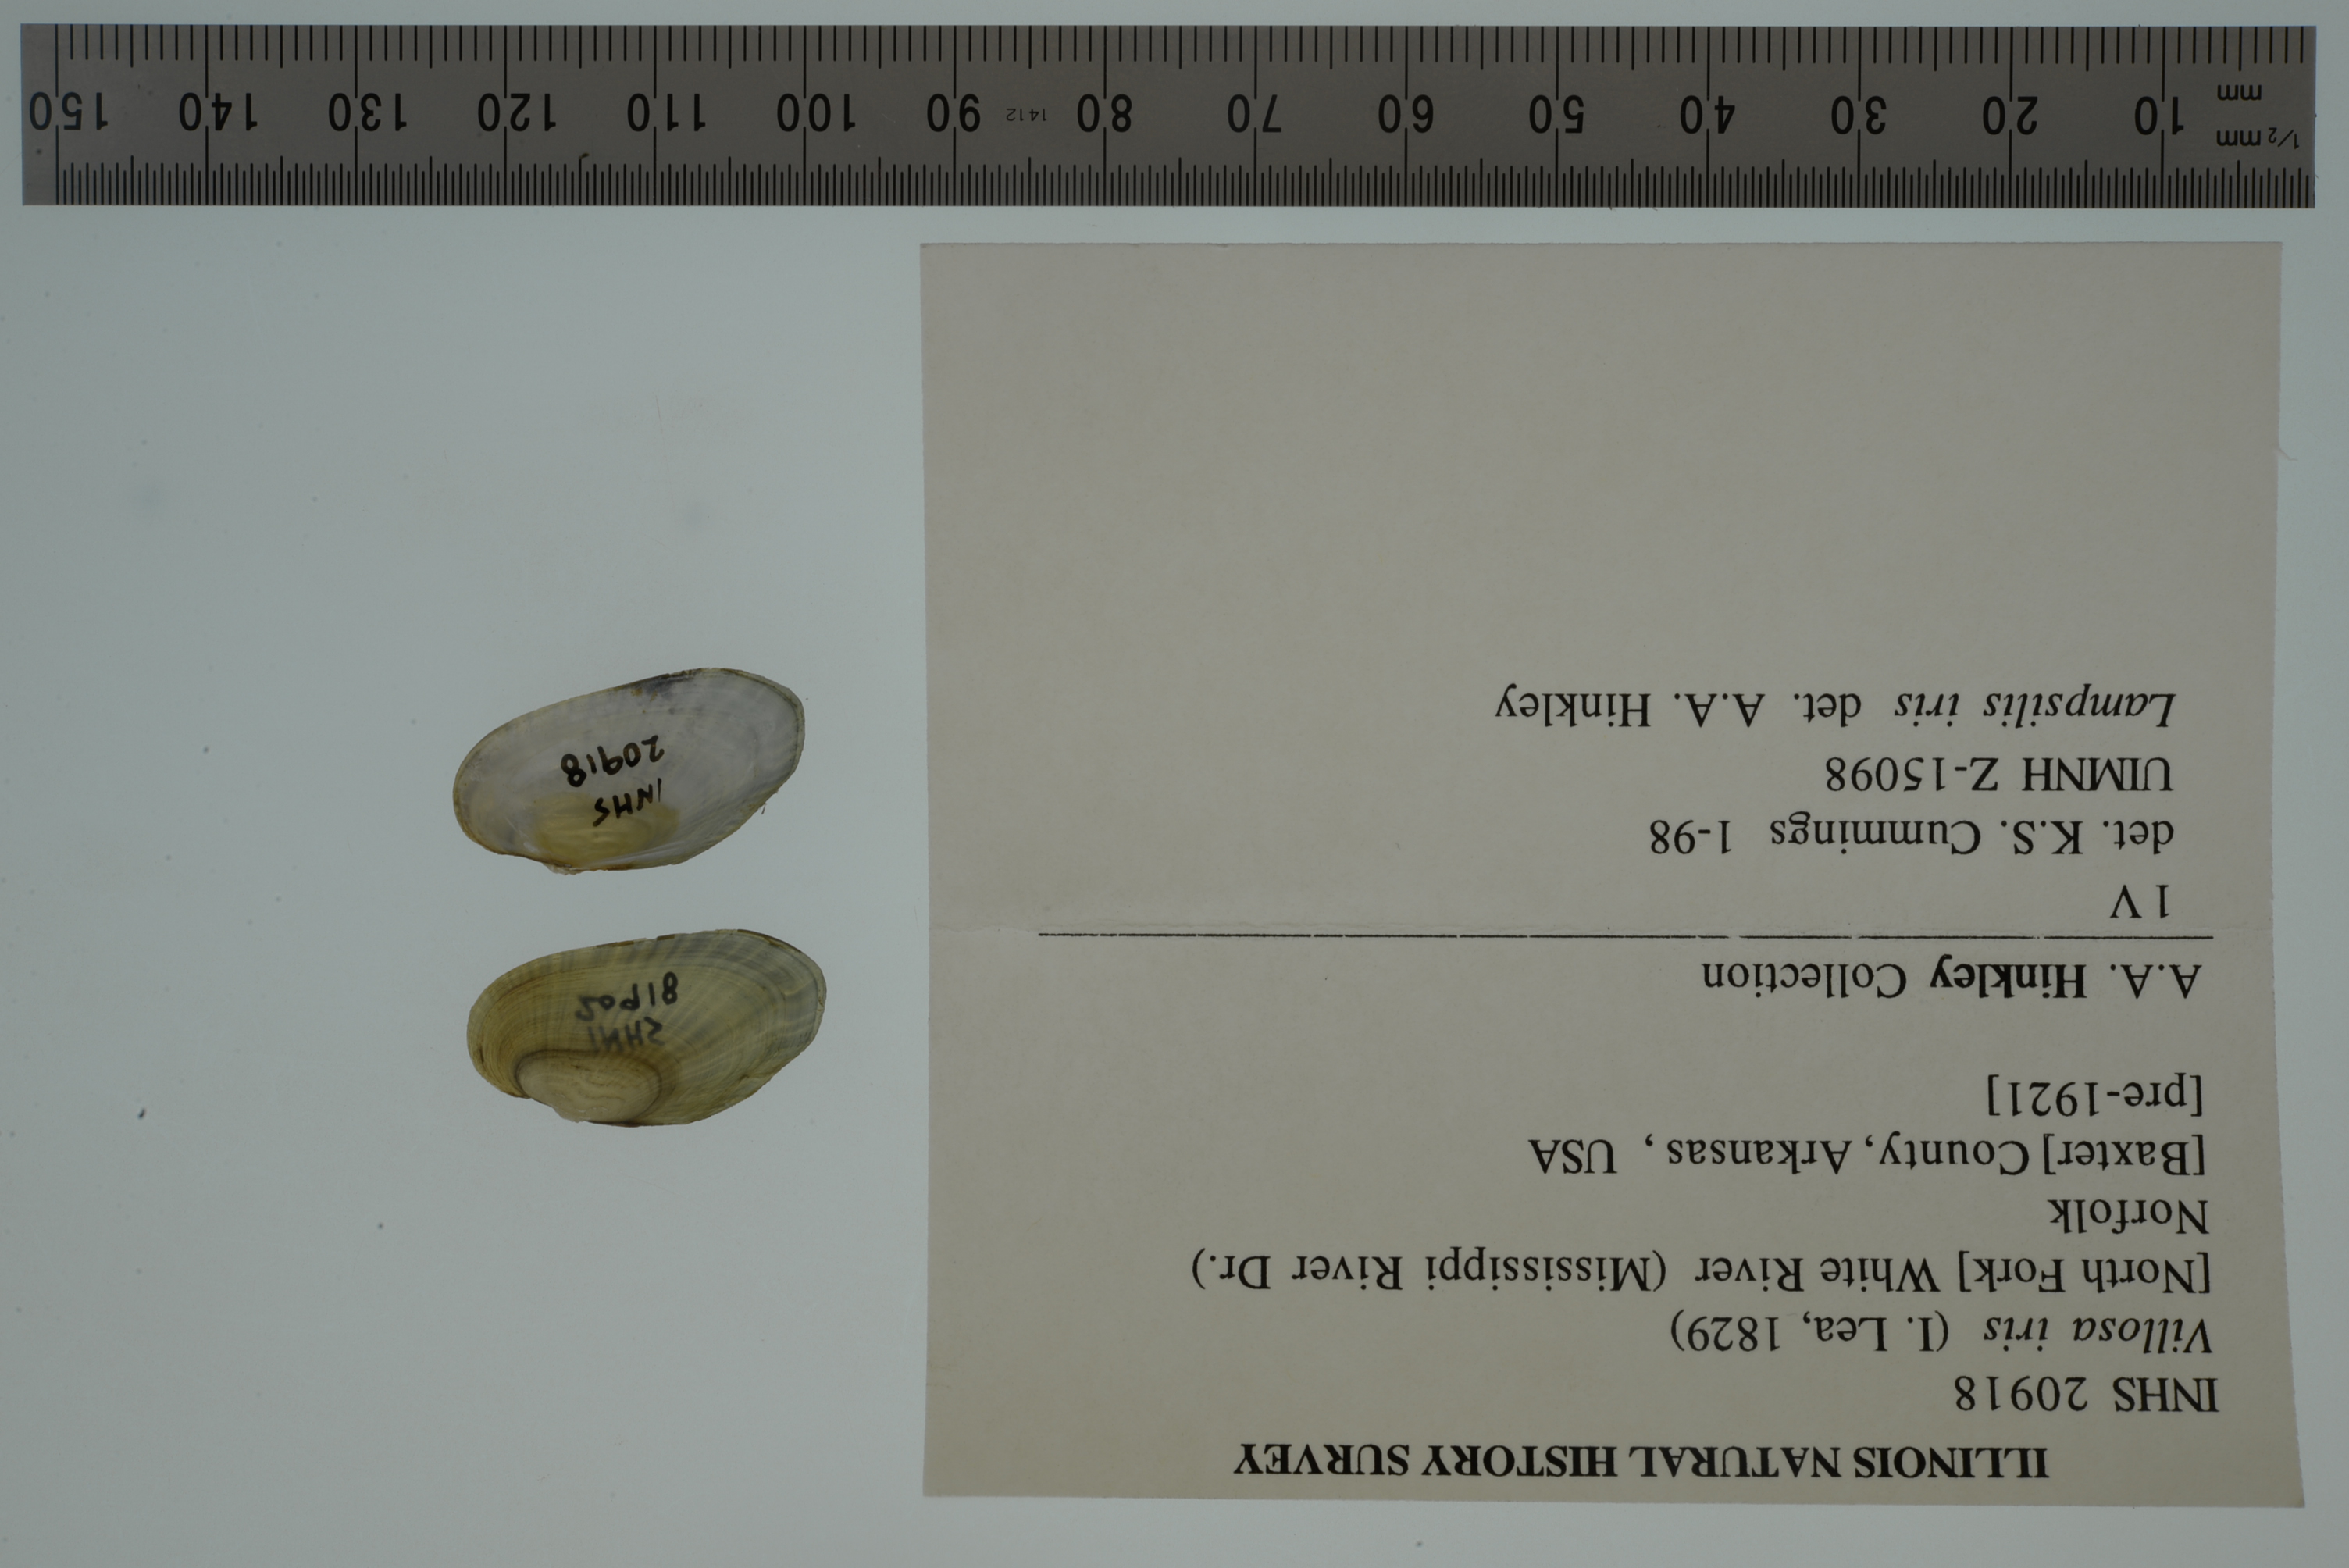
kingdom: Animalia
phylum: Mollusca
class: Bivalvia
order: Unionida
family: Unionidae
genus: Cambarunio
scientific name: Cambarunio hesperus
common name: Western rainbow
